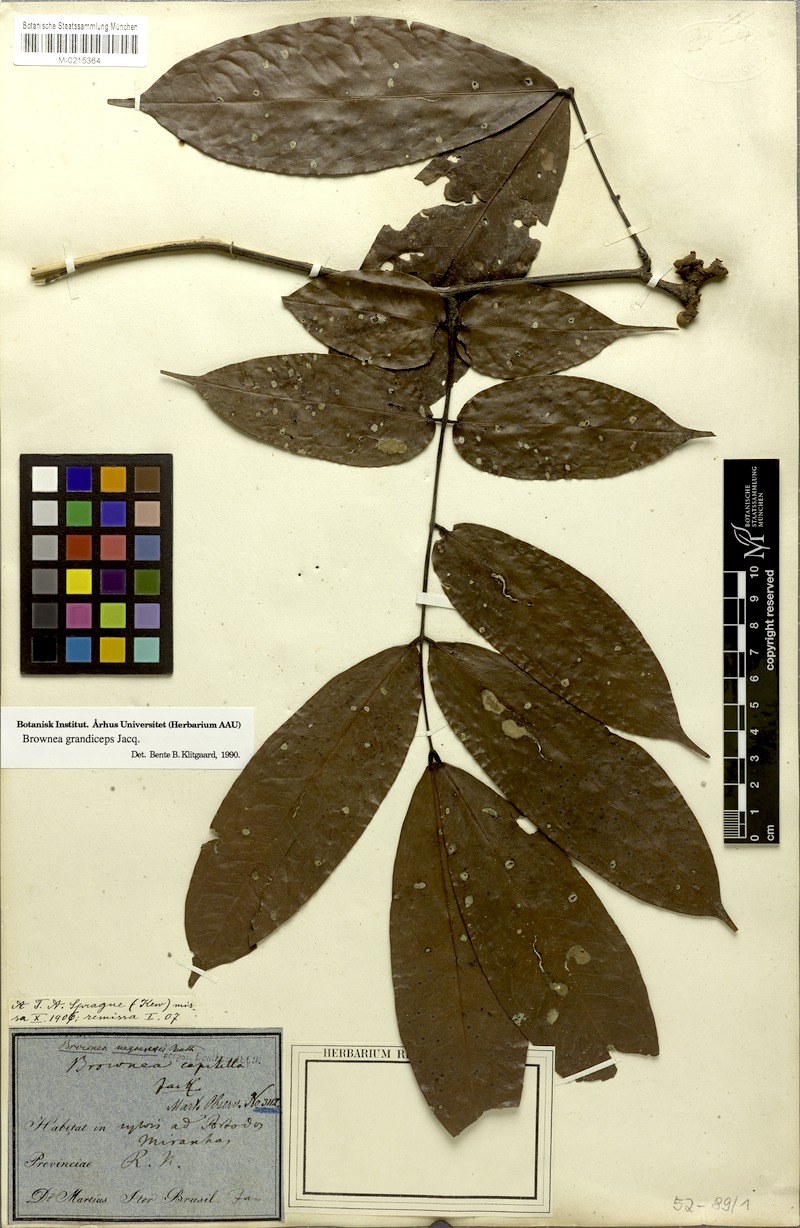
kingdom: Plantae
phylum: Tracheophyta
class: Magnoliopsida
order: Fabales
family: Fabaceae
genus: Brownea
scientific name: Brownea grandiceps
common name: Rose-of-venezuela
